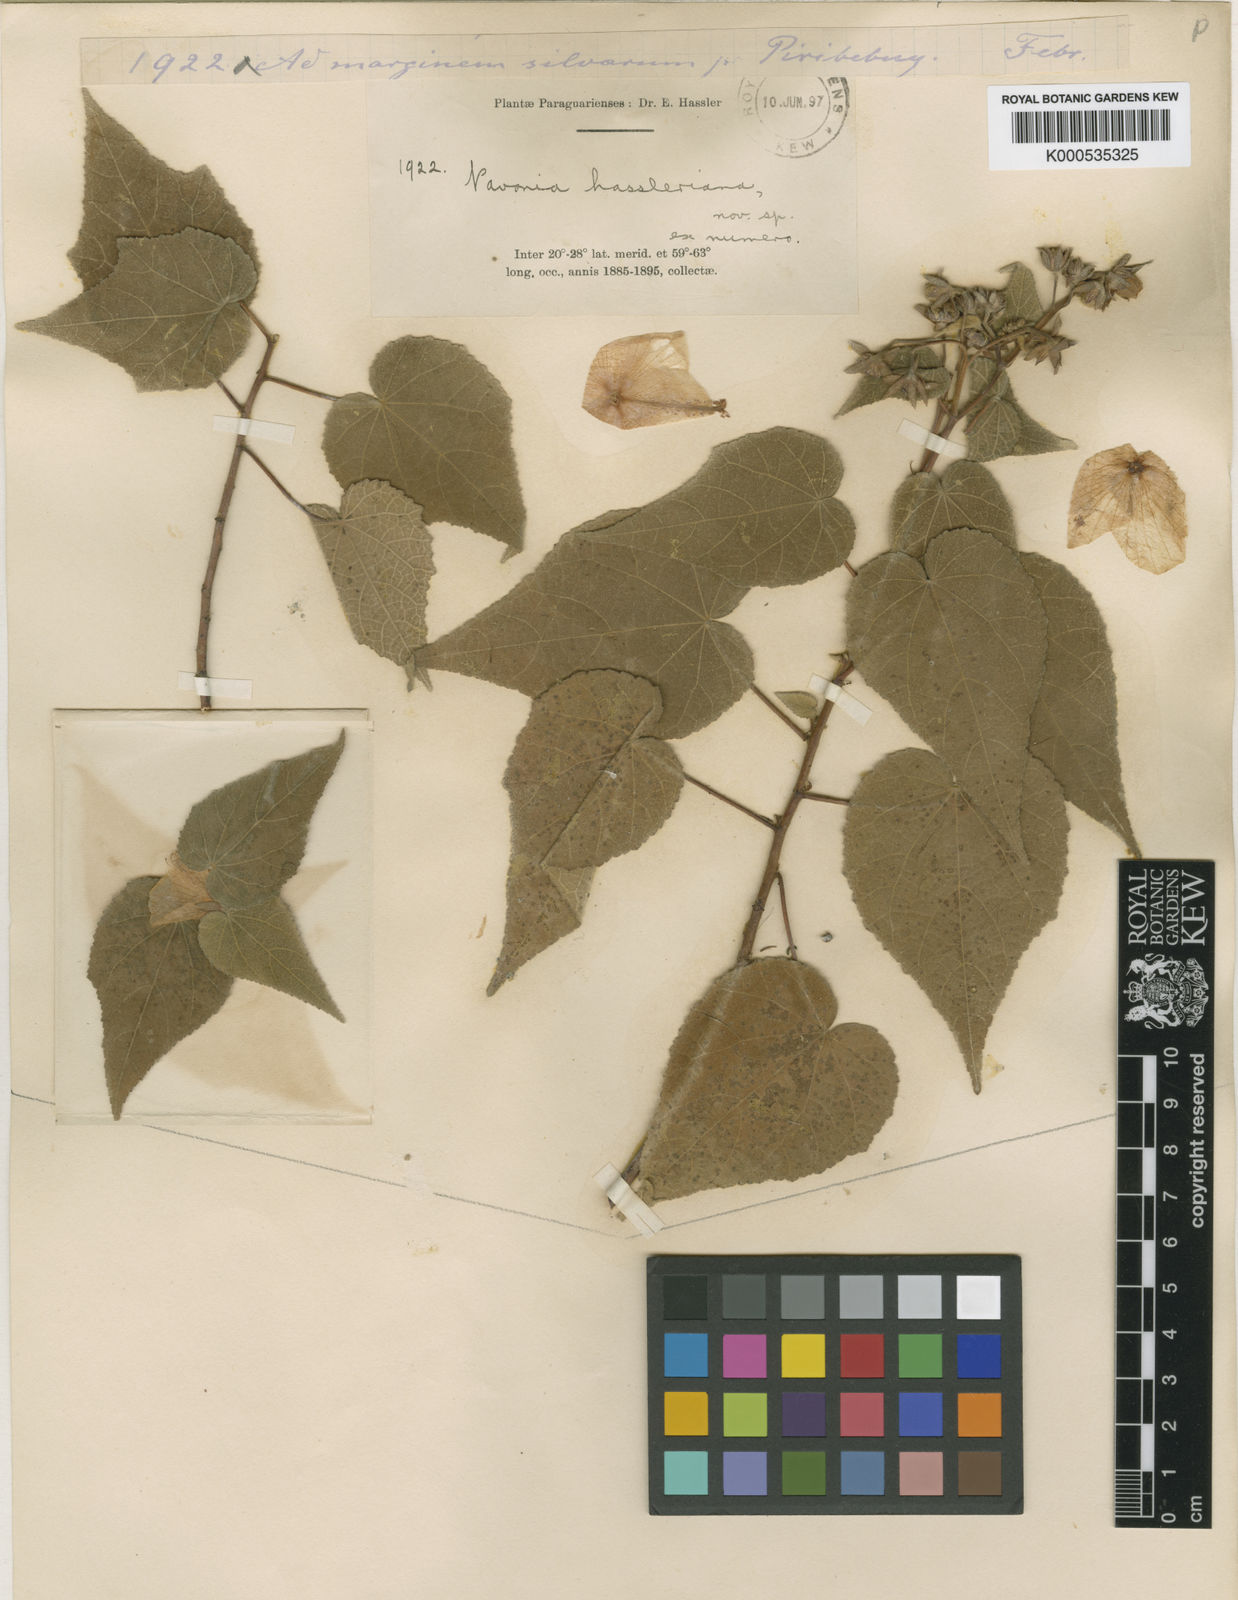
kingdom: Plantae
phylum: Tracheophyta
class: Magnoliopsida
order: Malvales
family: Malvaceae
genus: Pavonia
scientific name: Pavonia hassleriana
